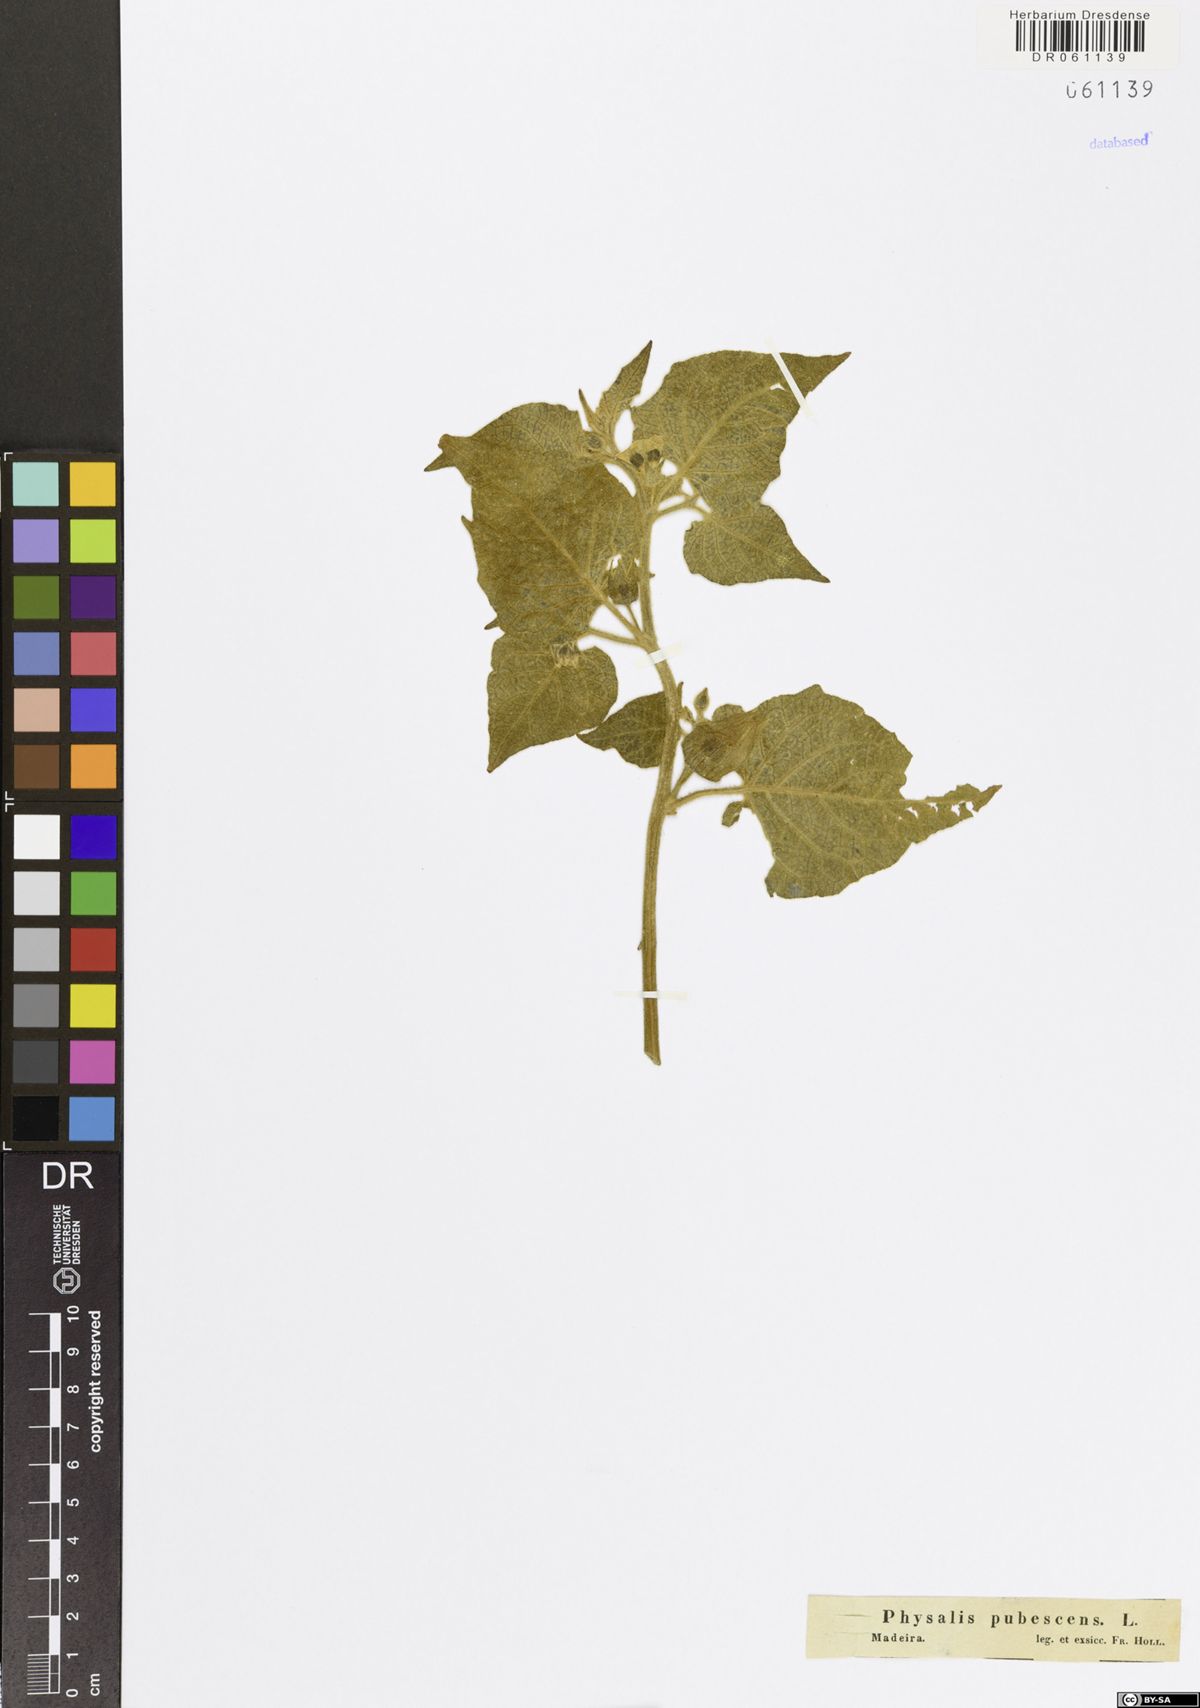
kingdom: Plantae
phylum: Tracheophyta
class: Magnoliopsida
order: Solanales
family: Solanaceae
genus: Physalis
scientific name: Physalis pubescens
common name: Downy ground-cherry
